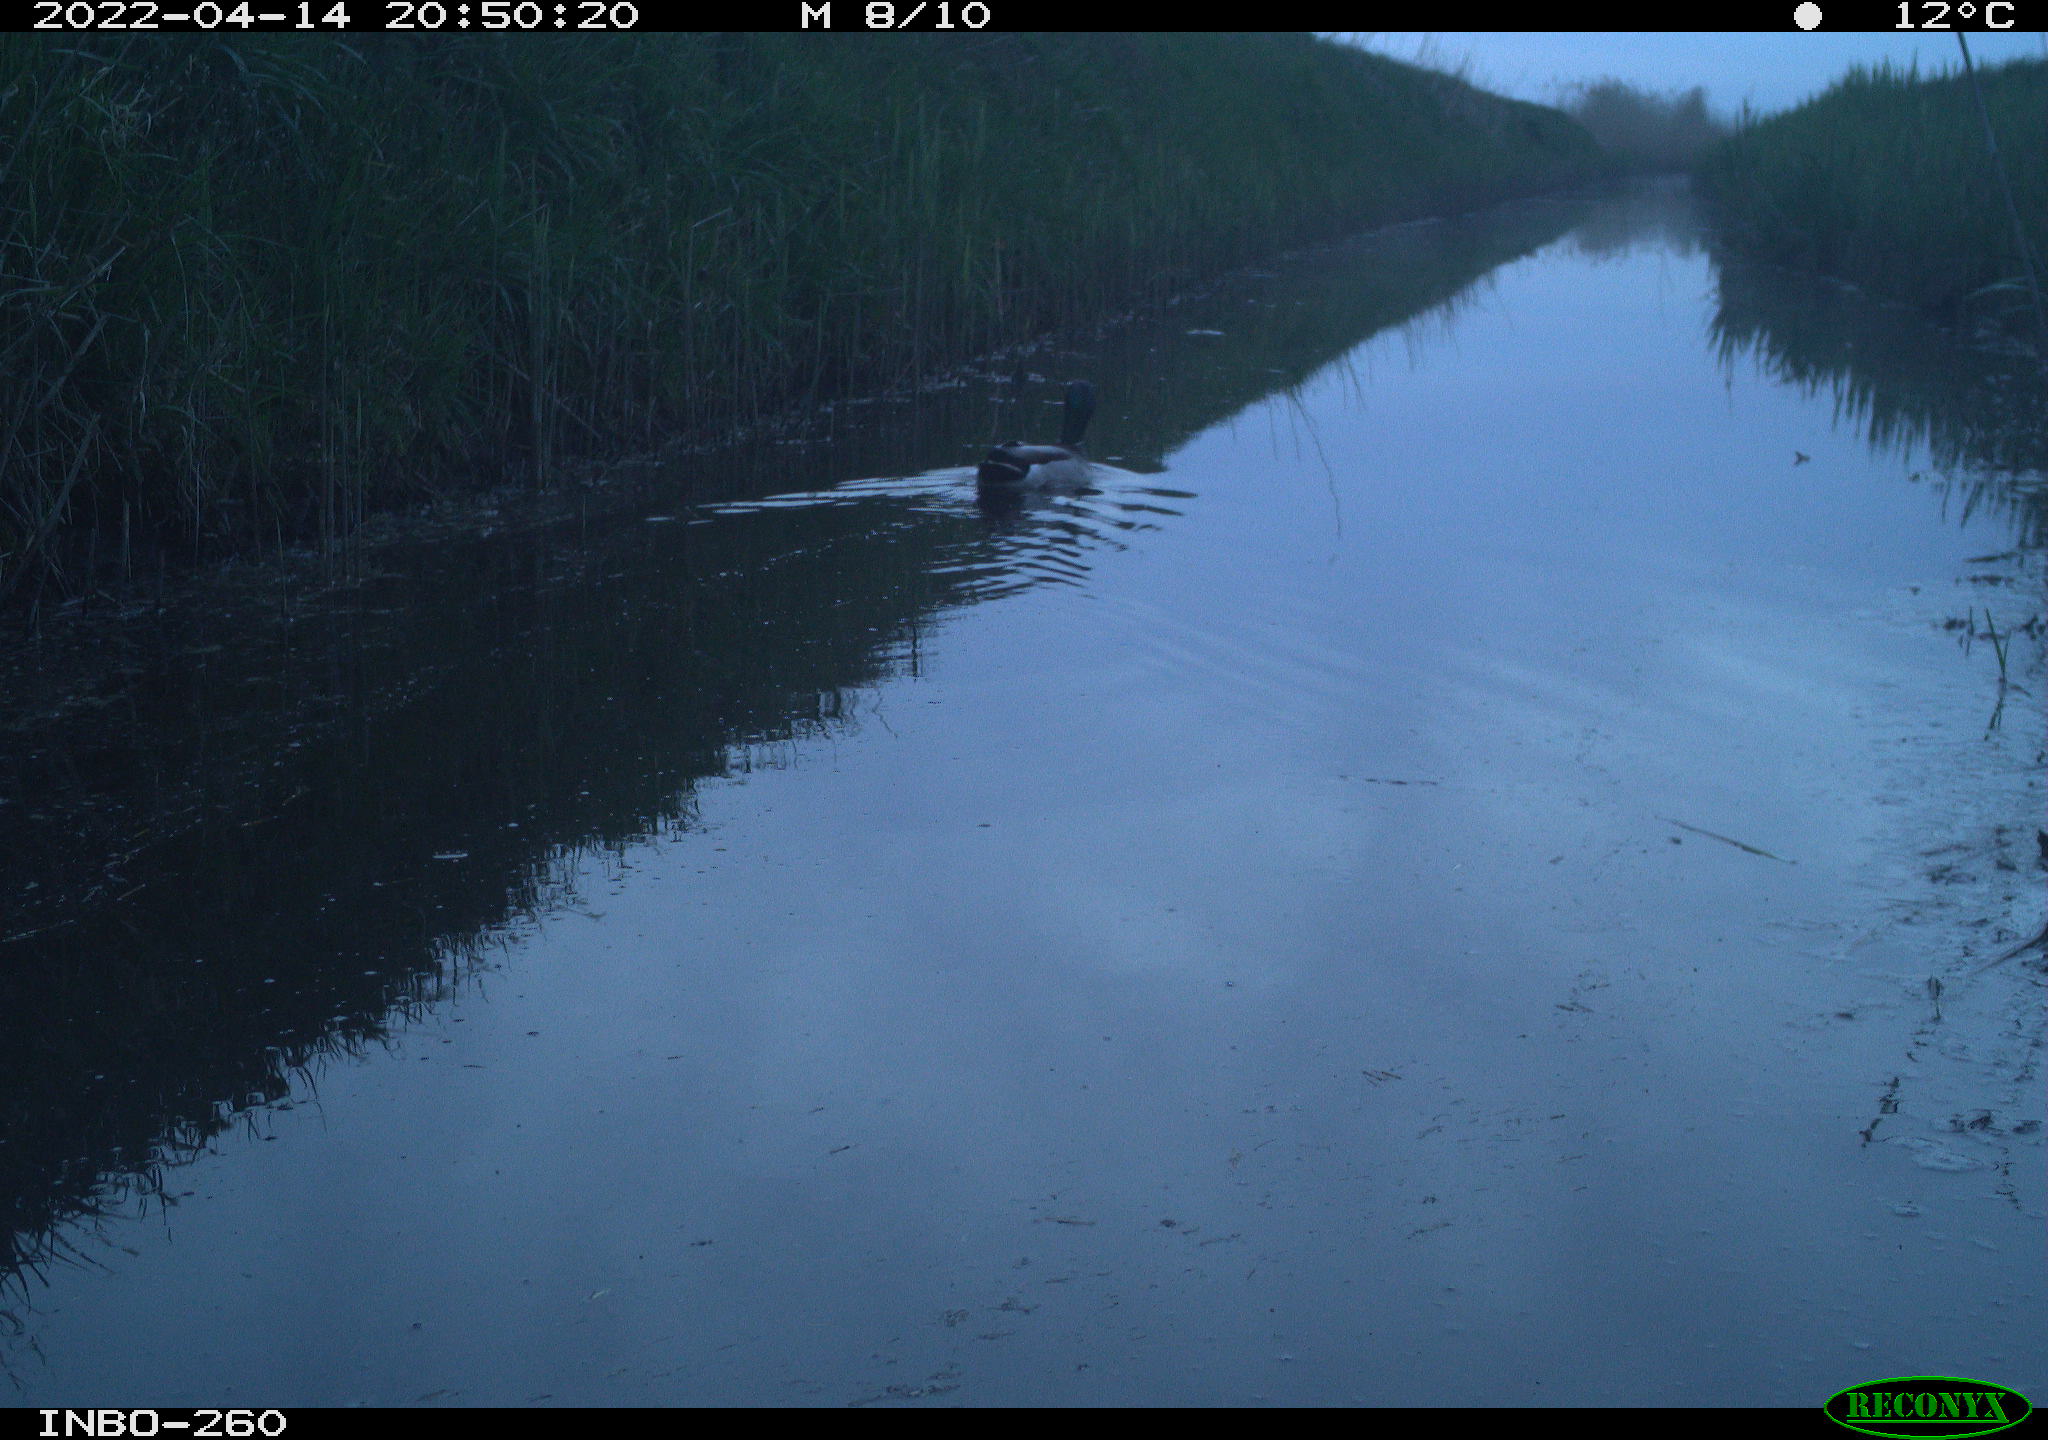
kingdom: Animalia
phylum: Chordata
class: Aves
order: Anseriformes
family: Anatidae
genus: Anas
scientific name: Anas platyrhynchos
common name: Mallard
